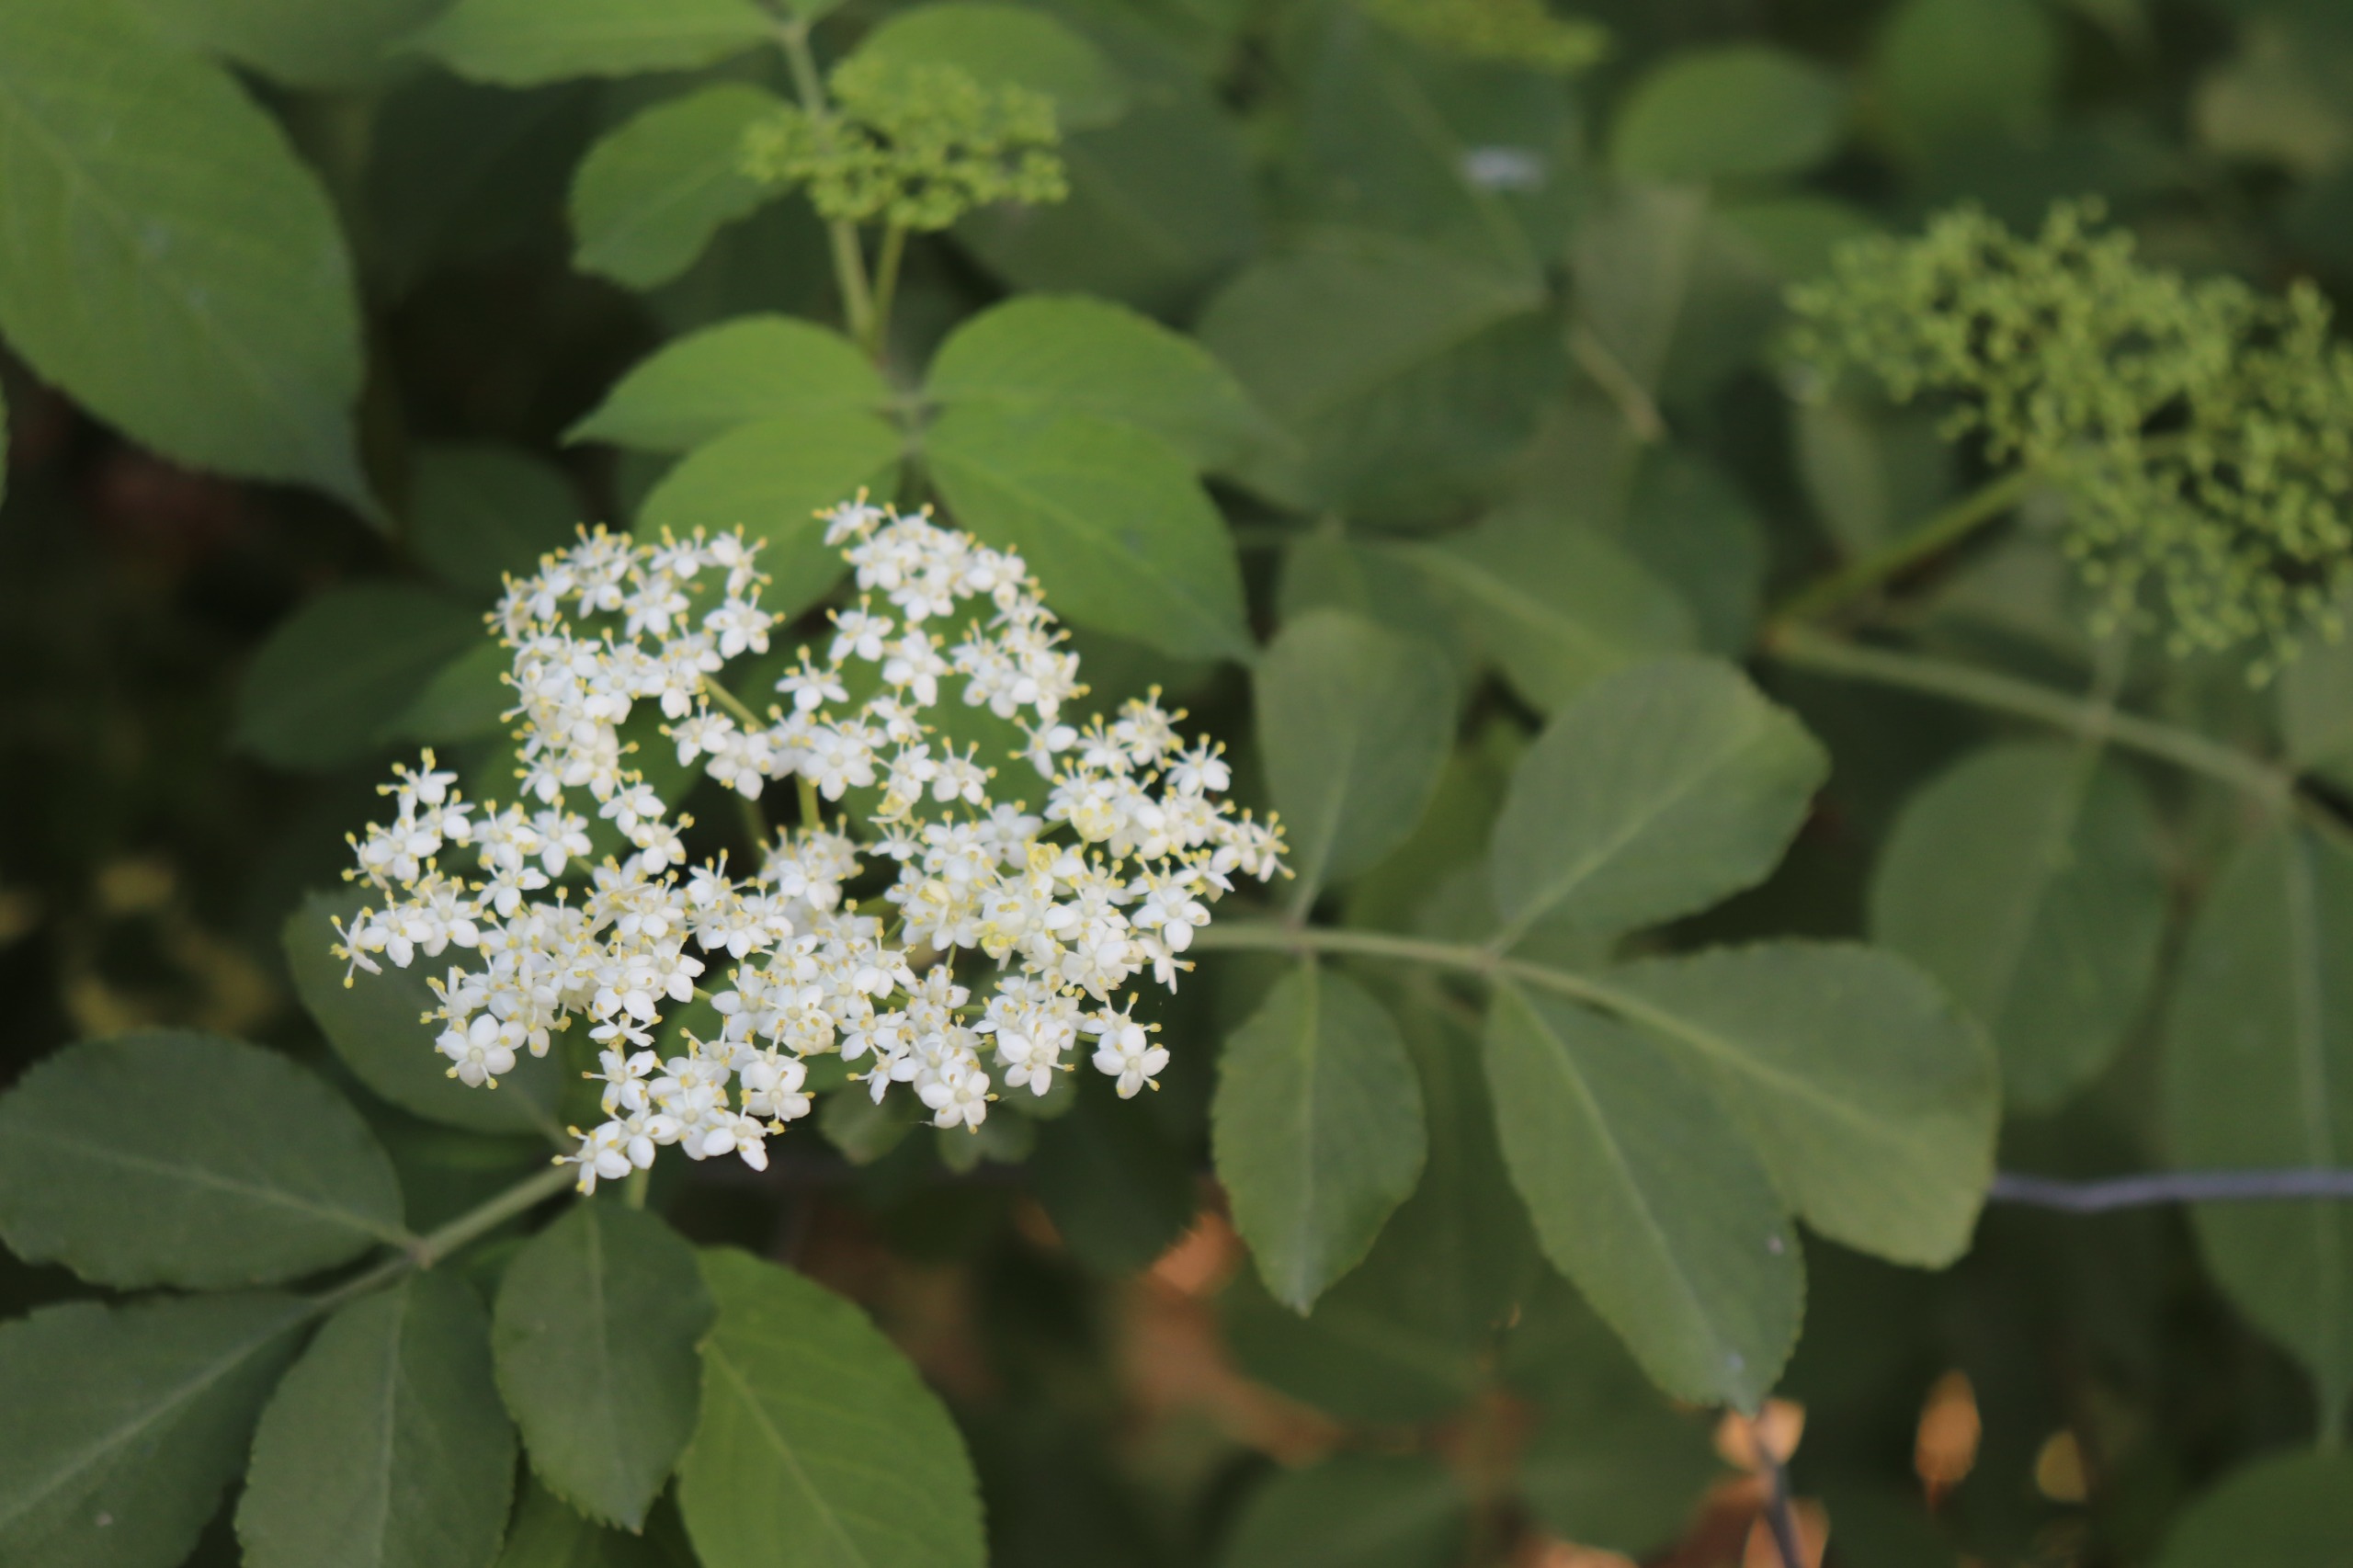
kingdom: Plantae
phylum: Tracheophyta
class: Magnoliopsida
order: Dipsacales
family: Viburnaceae
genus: Sambucus
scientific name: Sambucus nigra
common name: Almindelig hyld
